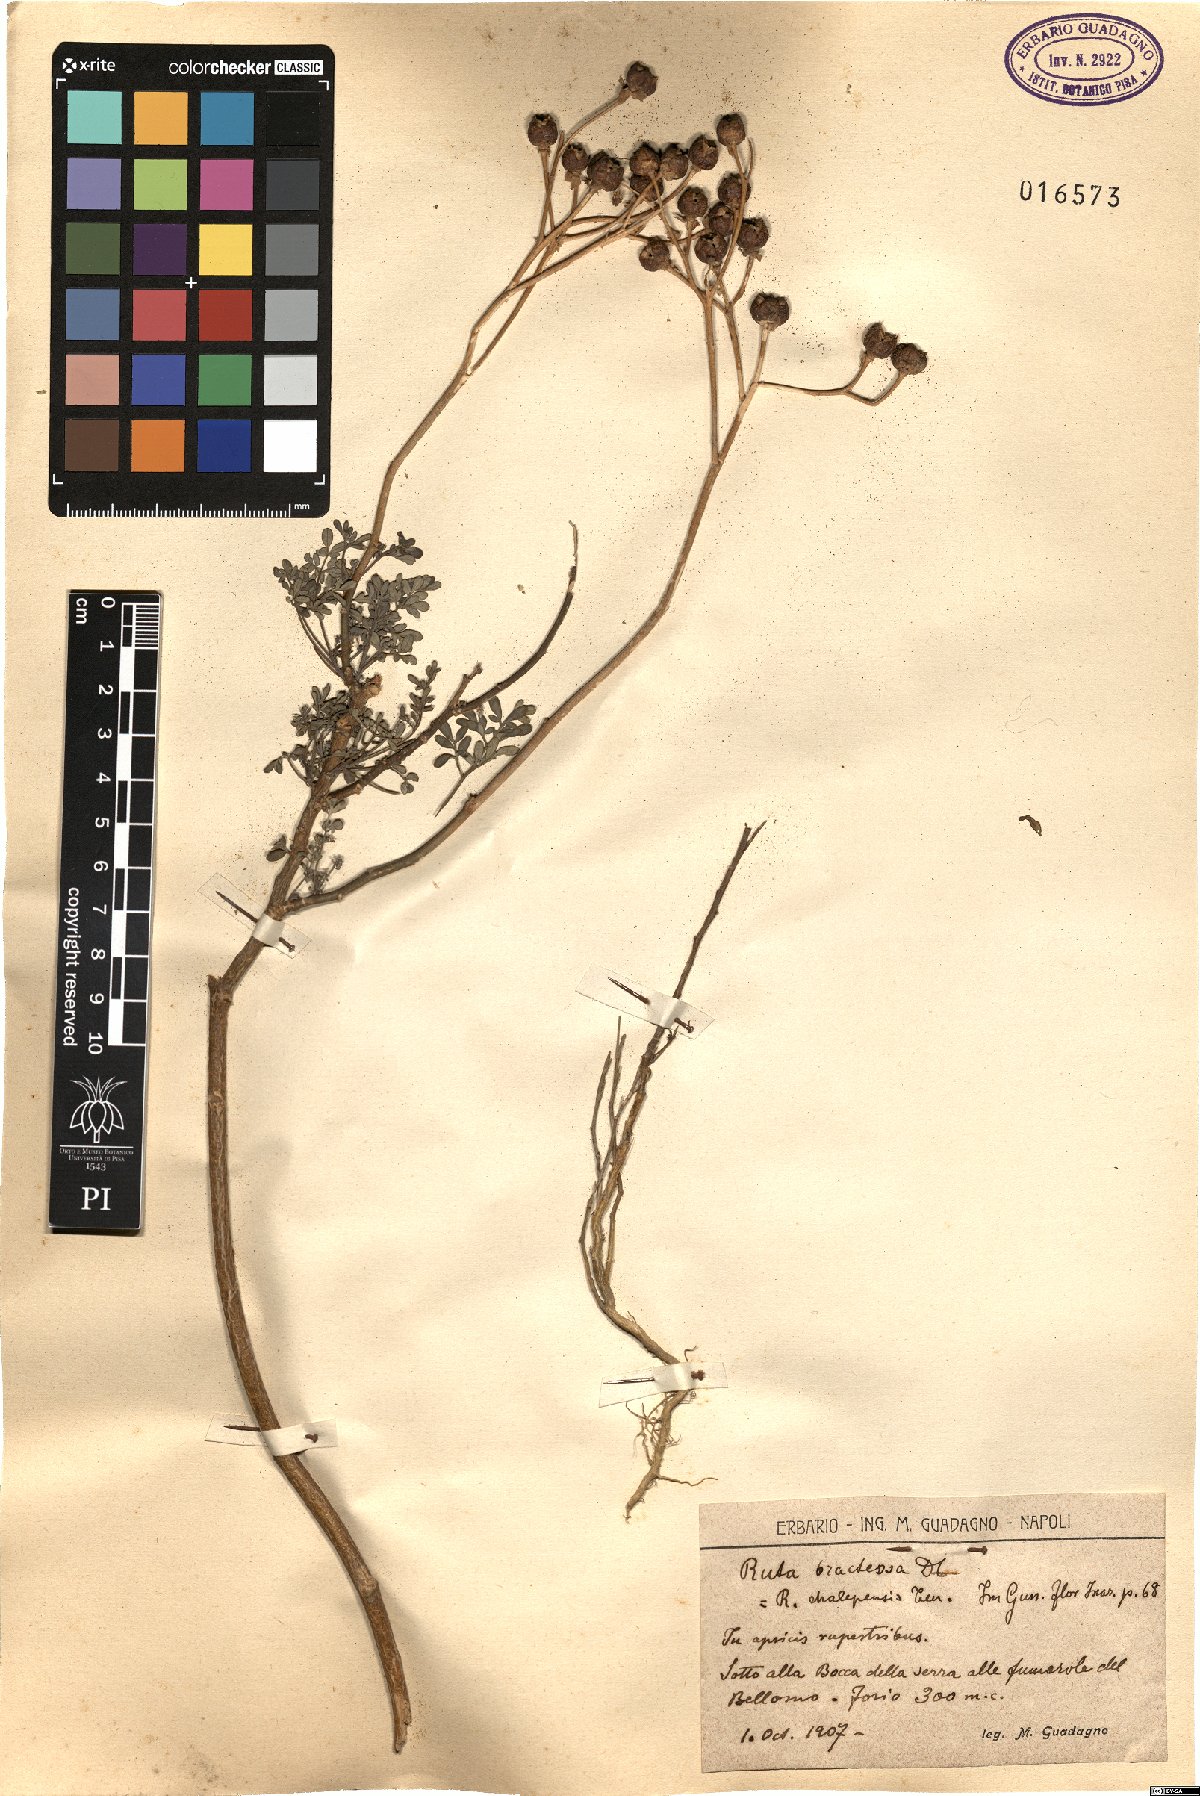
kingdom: Plantae
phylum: Tracheophyta
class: Magnoliopsida
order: Sapindales
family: Rutaceae
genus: Ruta
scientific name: Ruta chalepensis
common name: Fringed rue
